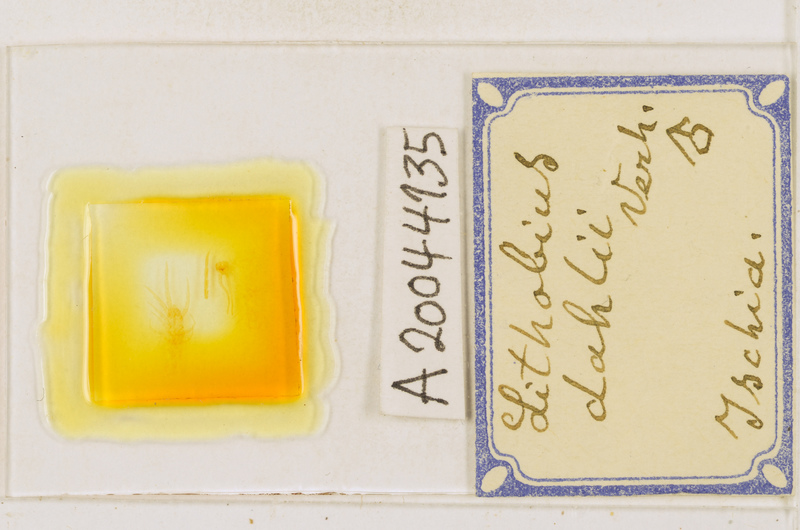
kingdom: Animalia
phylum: Arthropoda
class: Chilopoda
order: Lithobiomorpha
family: Lithobiidae
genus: Lithobius
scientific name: Lithobius dahlii
